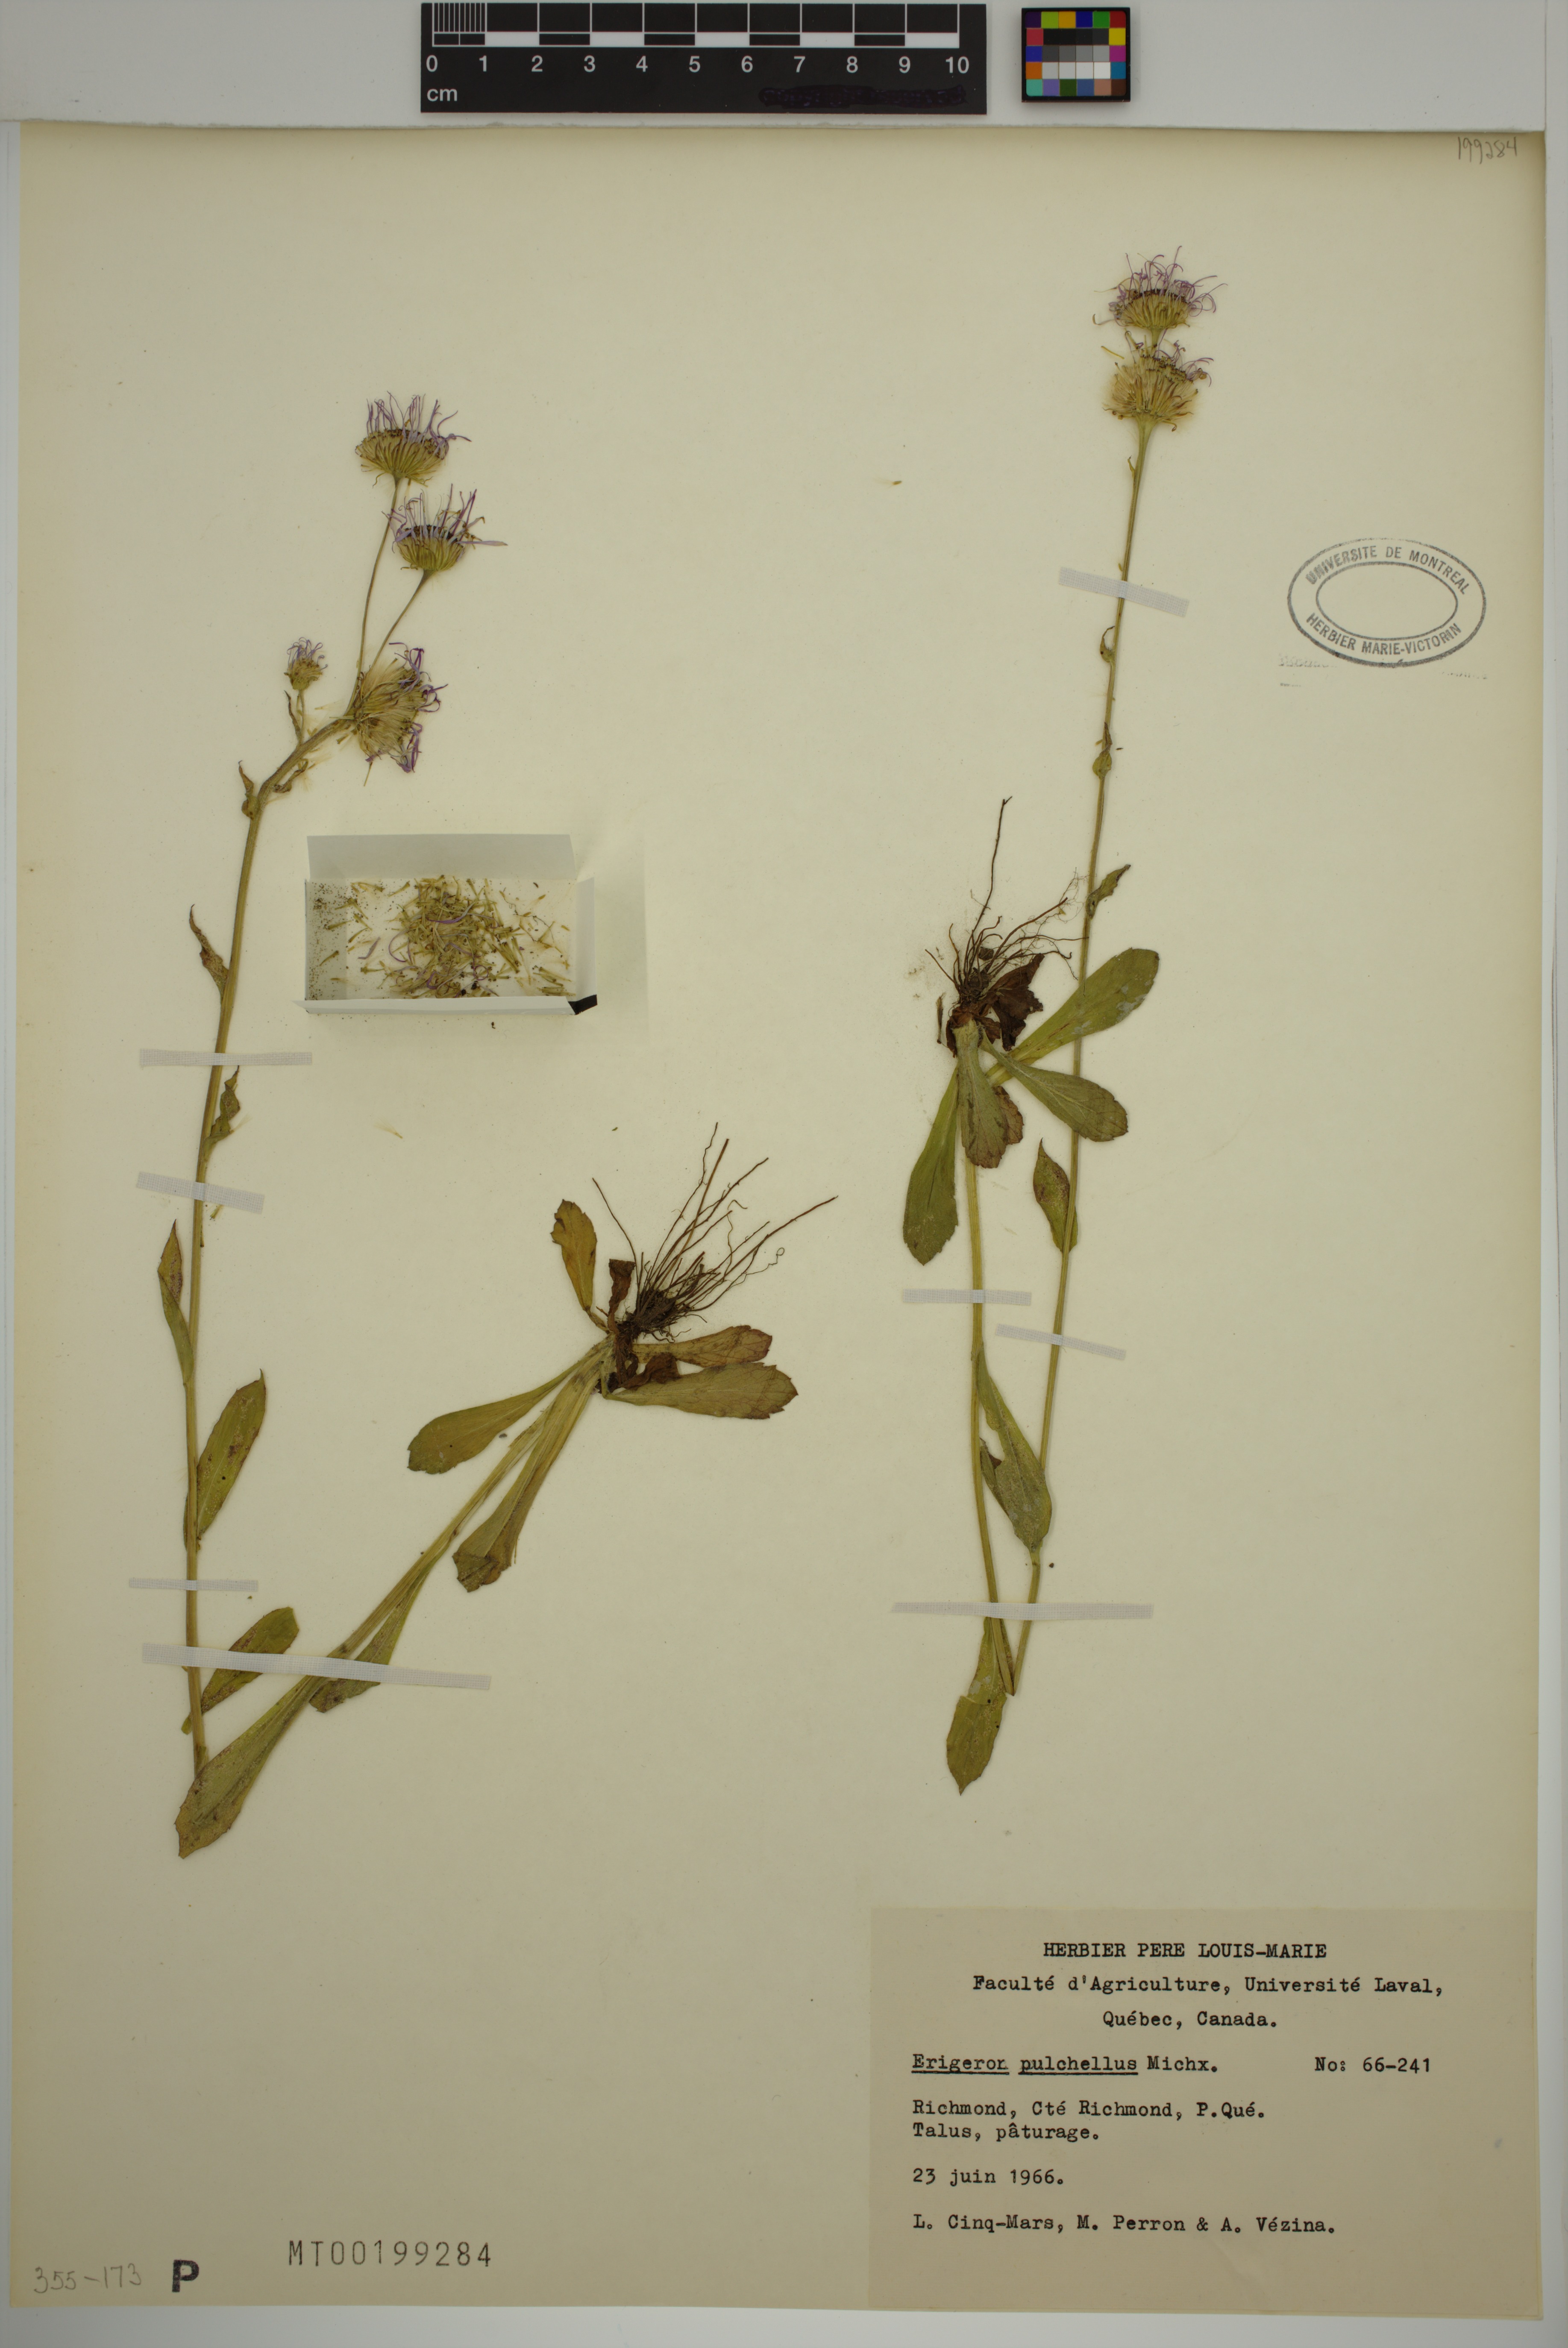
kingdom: Plantae
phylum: Tracheophyta
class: Magnoliopsida
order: Asterales
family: Asteraceae
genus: Erigeron
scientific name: Erigeron pulchellus
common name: Hairy fleabane
